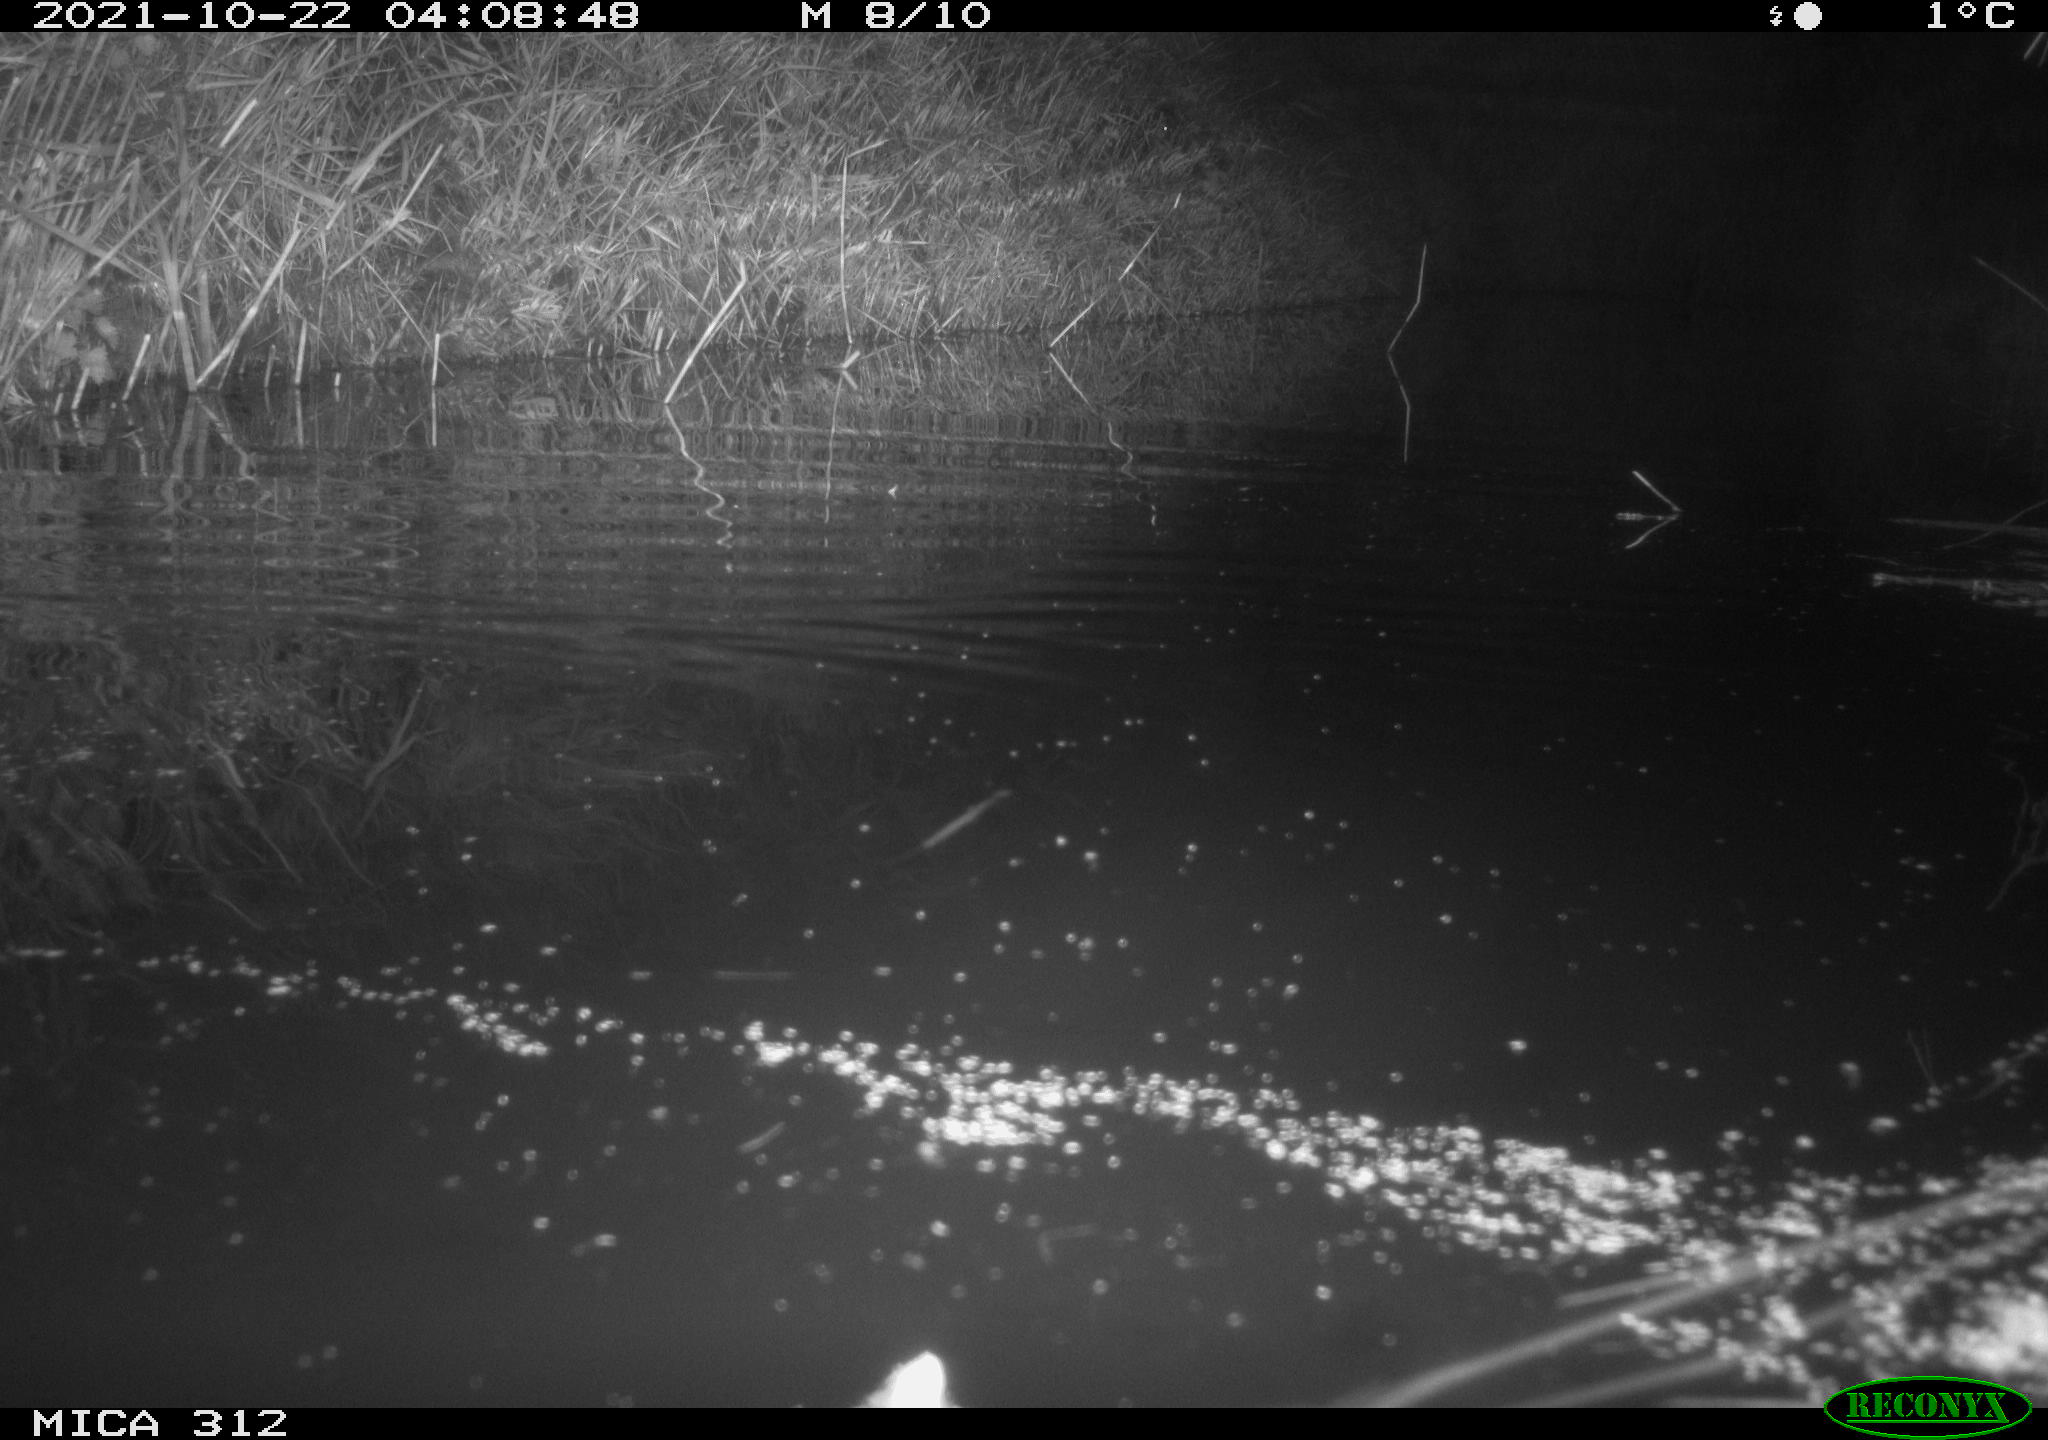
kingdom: Animalia
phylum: Chordata
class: Mammalia
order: Rodentia
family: Muridae
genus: Rattus
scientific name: Rattus norvegicus
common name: Brown rat
